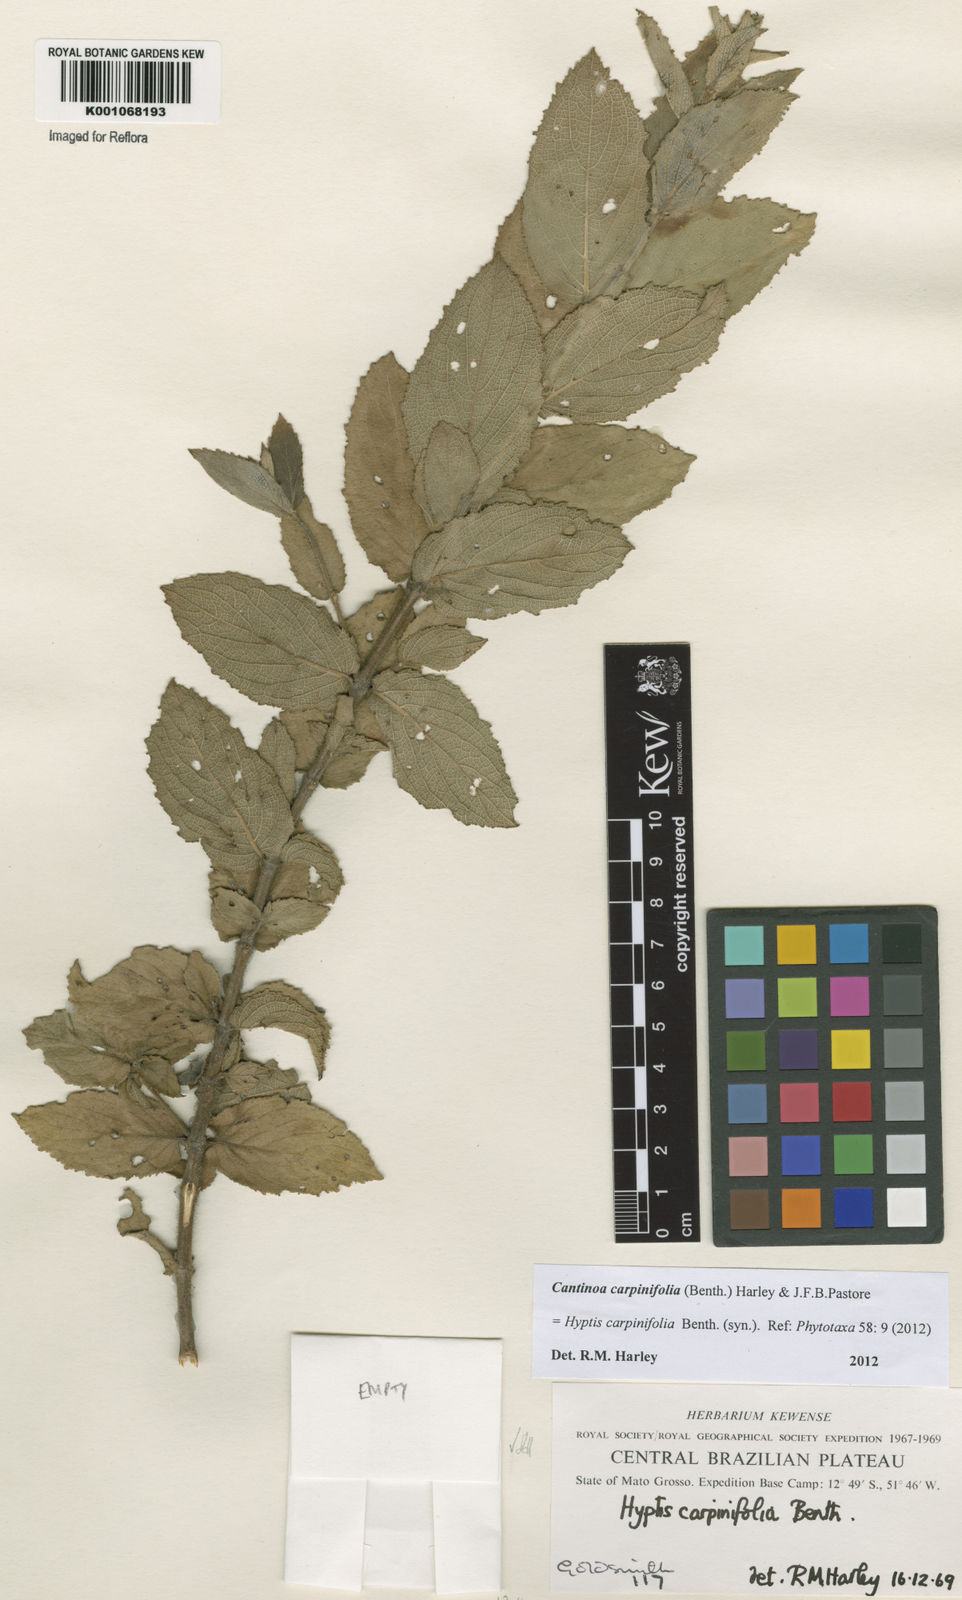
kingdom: Plantae
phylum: Tracheophyta
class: Magnoliopsida
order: Lamiales
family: Lamiaceae
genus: Cantinoa
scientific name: Cantinoa carpinifolia
